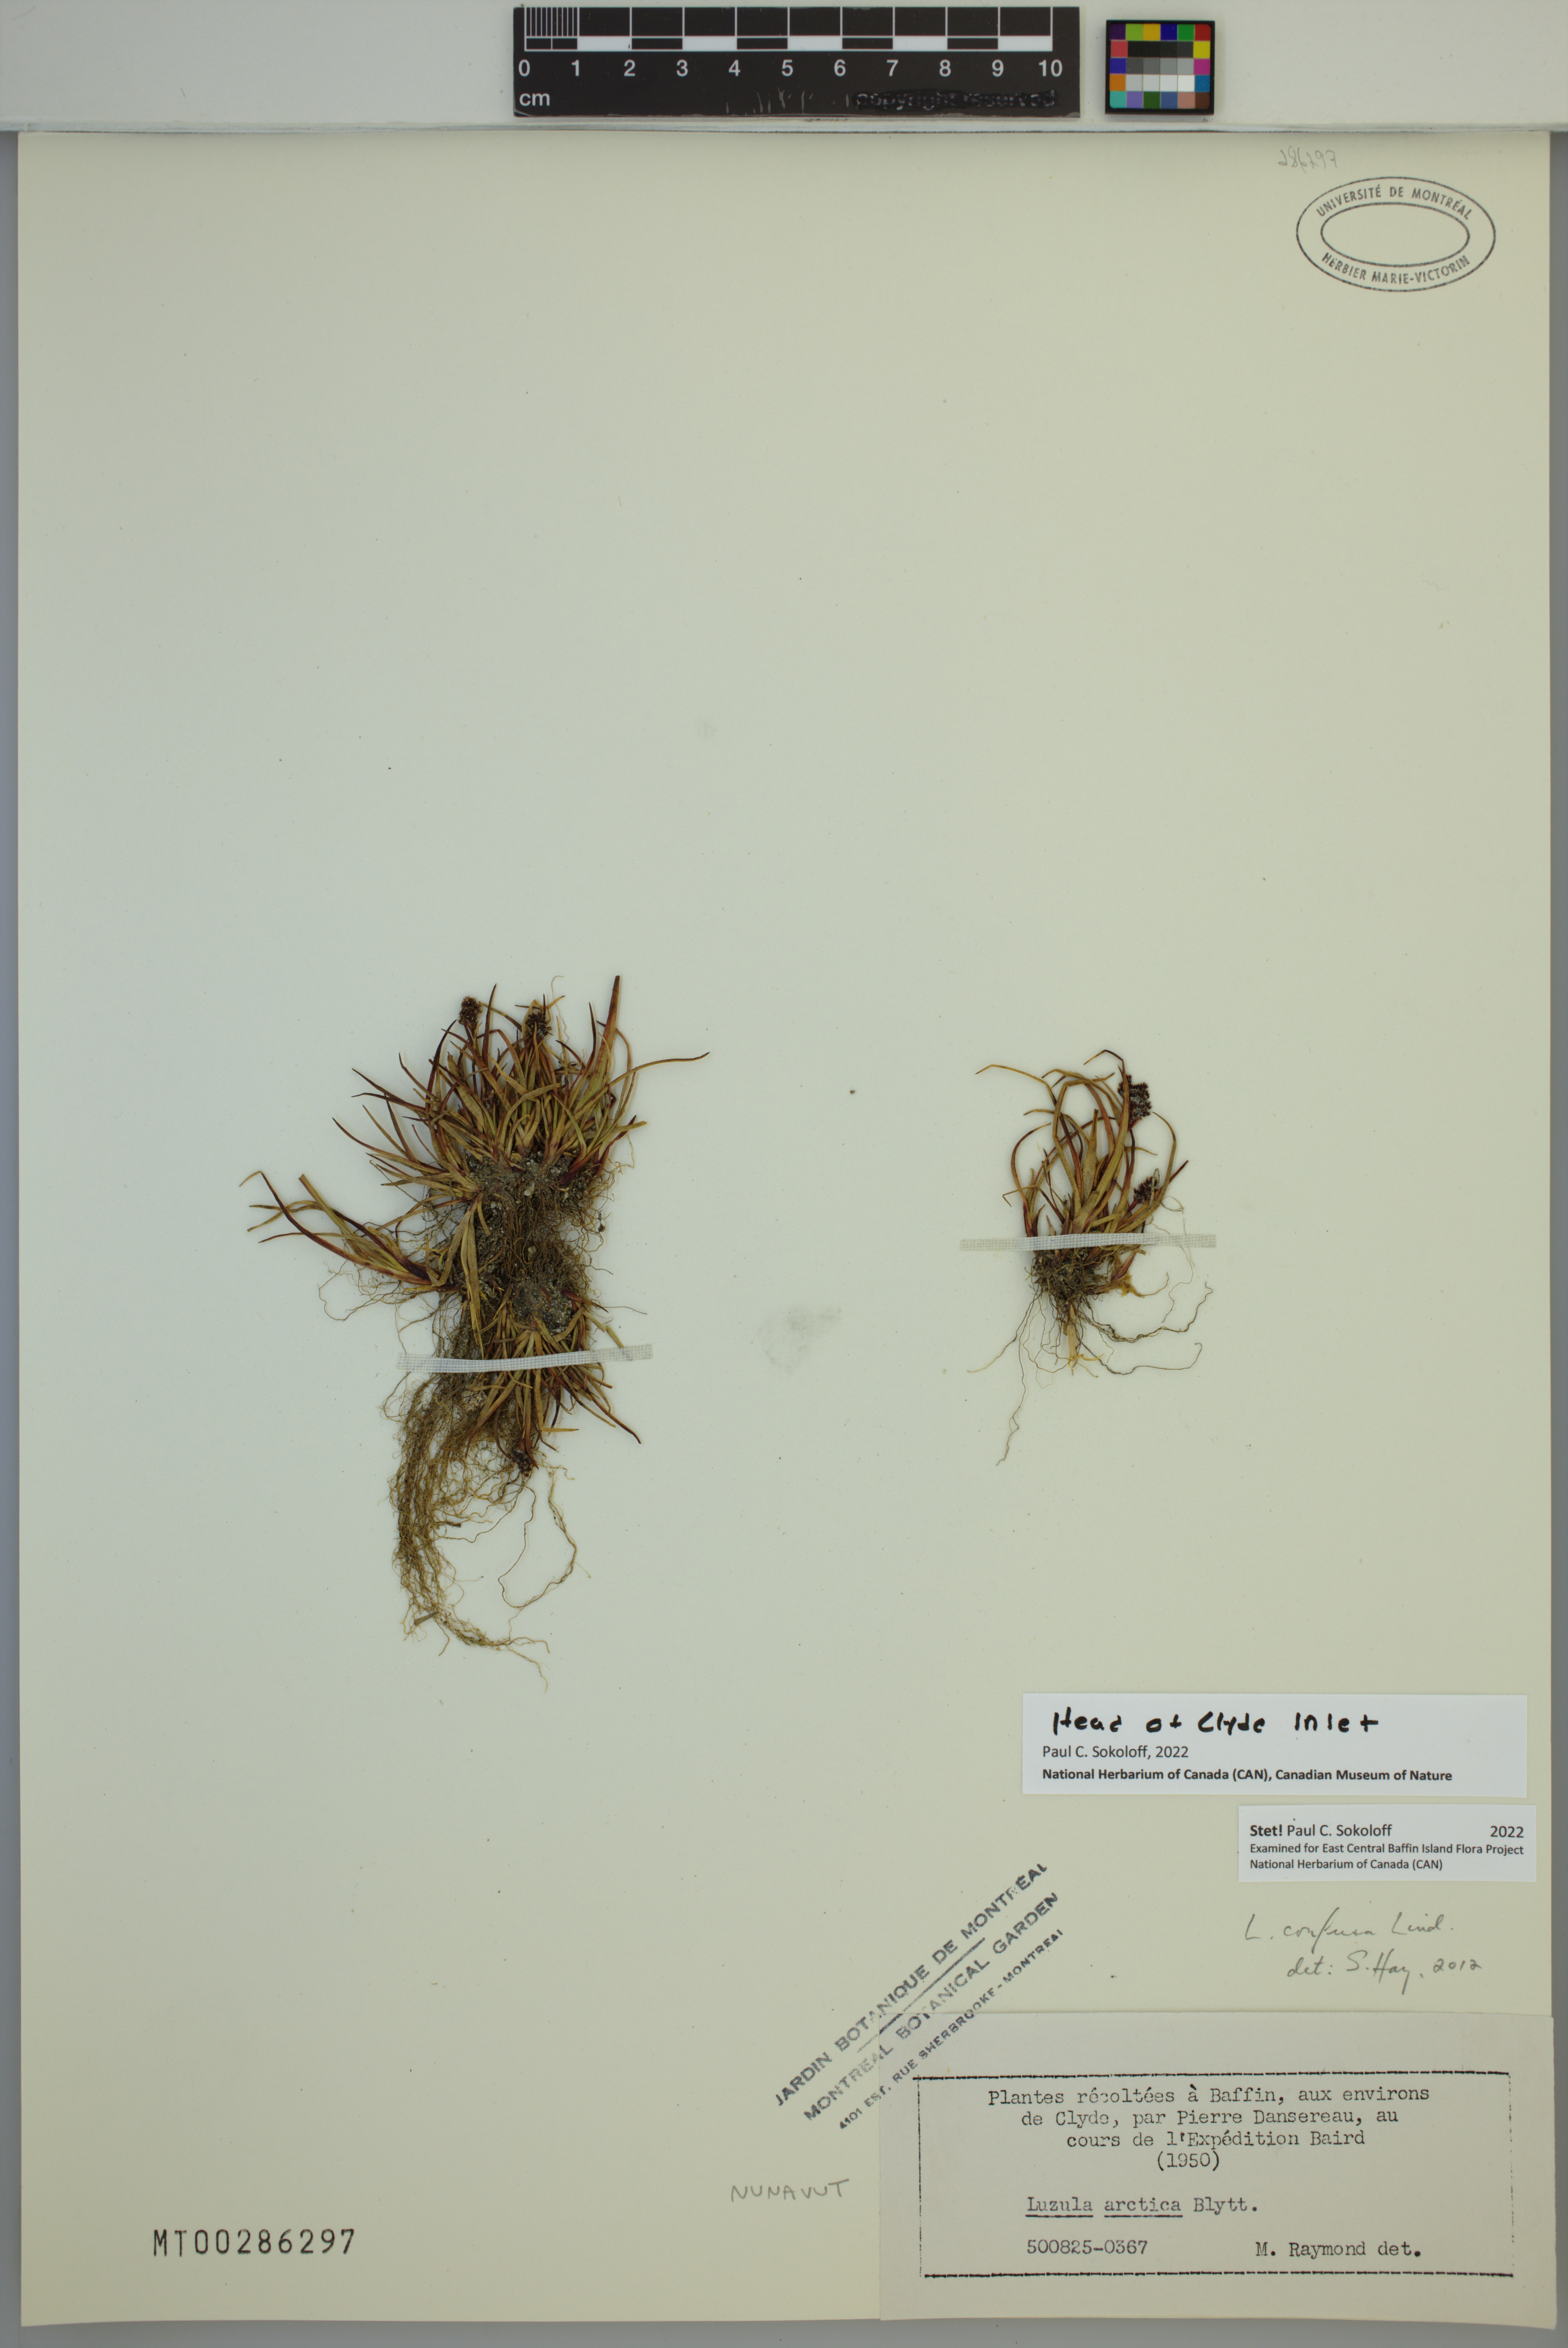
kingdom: Plantae
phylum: Tracheophyta
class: Liliopsida
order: Poales
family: Juncaceae
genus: Luzula
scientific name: Luzula confusa
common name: Northern wood rush
